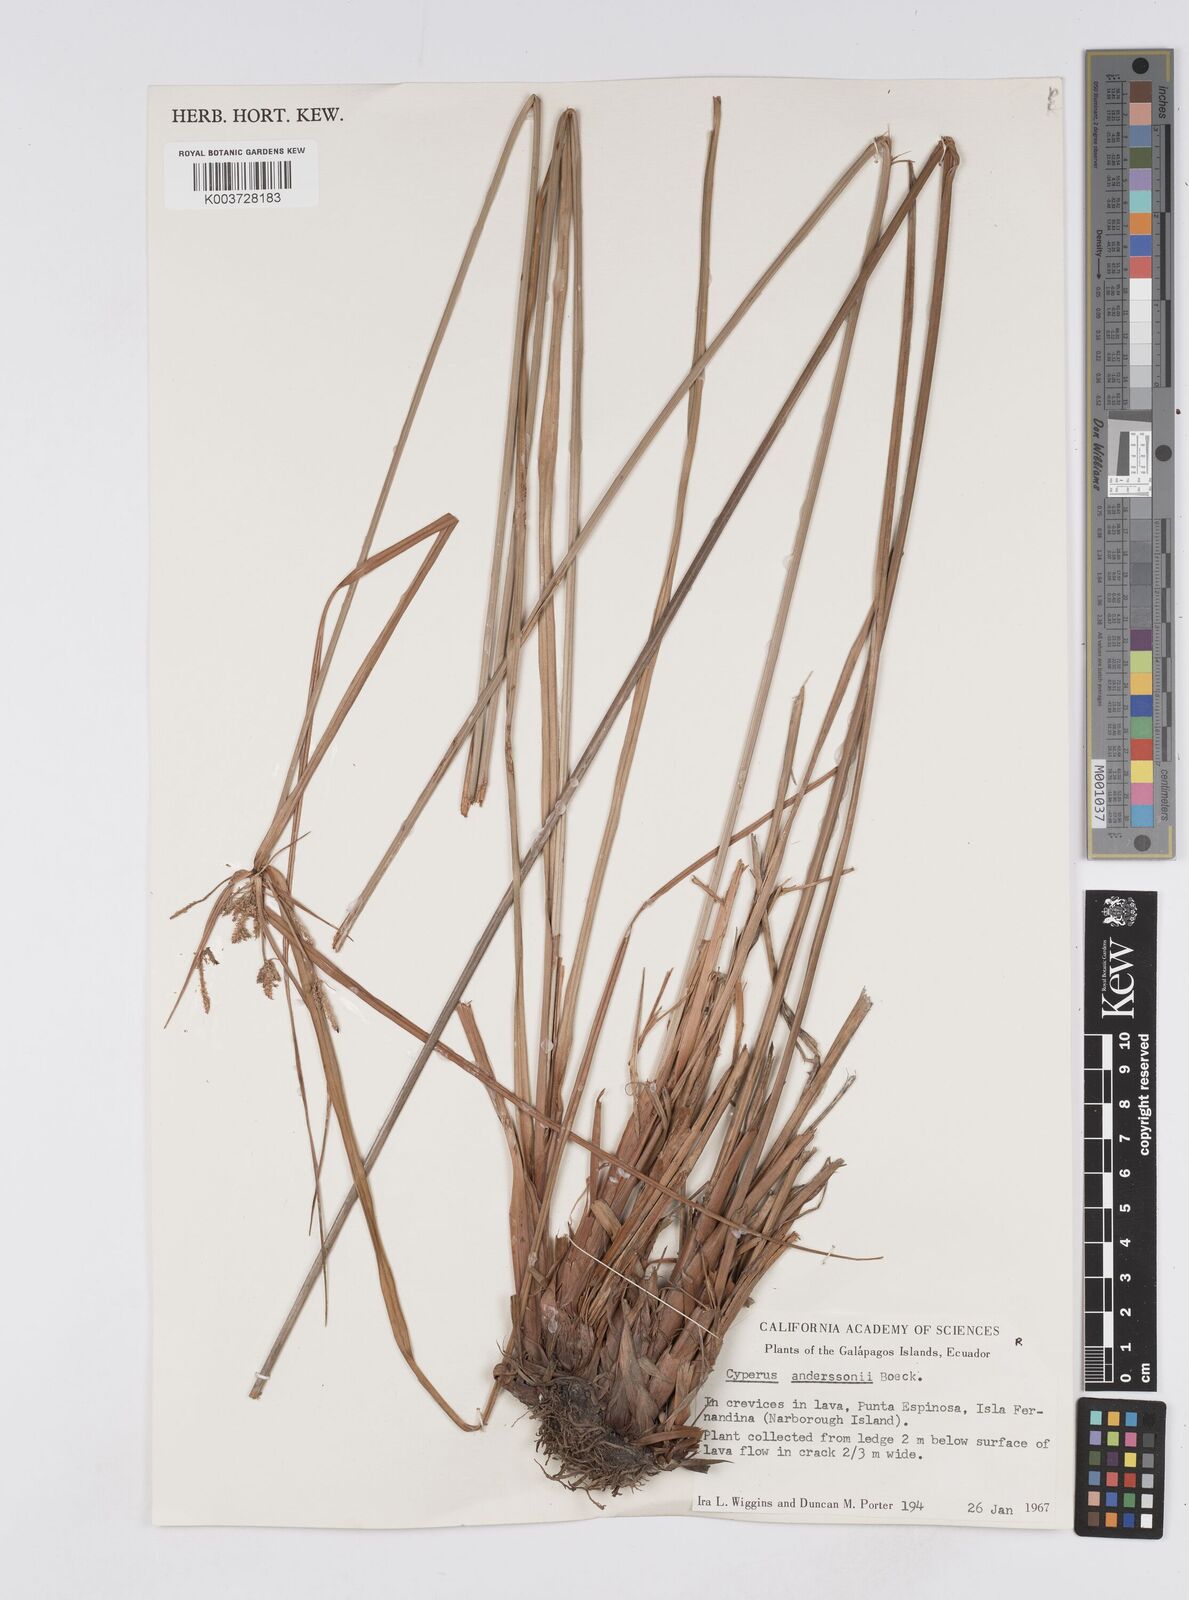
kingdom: Plantae
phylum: Tracheophyta
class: Liliopsida
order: Poales
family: Cyperaceae
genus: Cyperus
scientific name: Cyperus anderssonii
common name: Andersson's sedge
